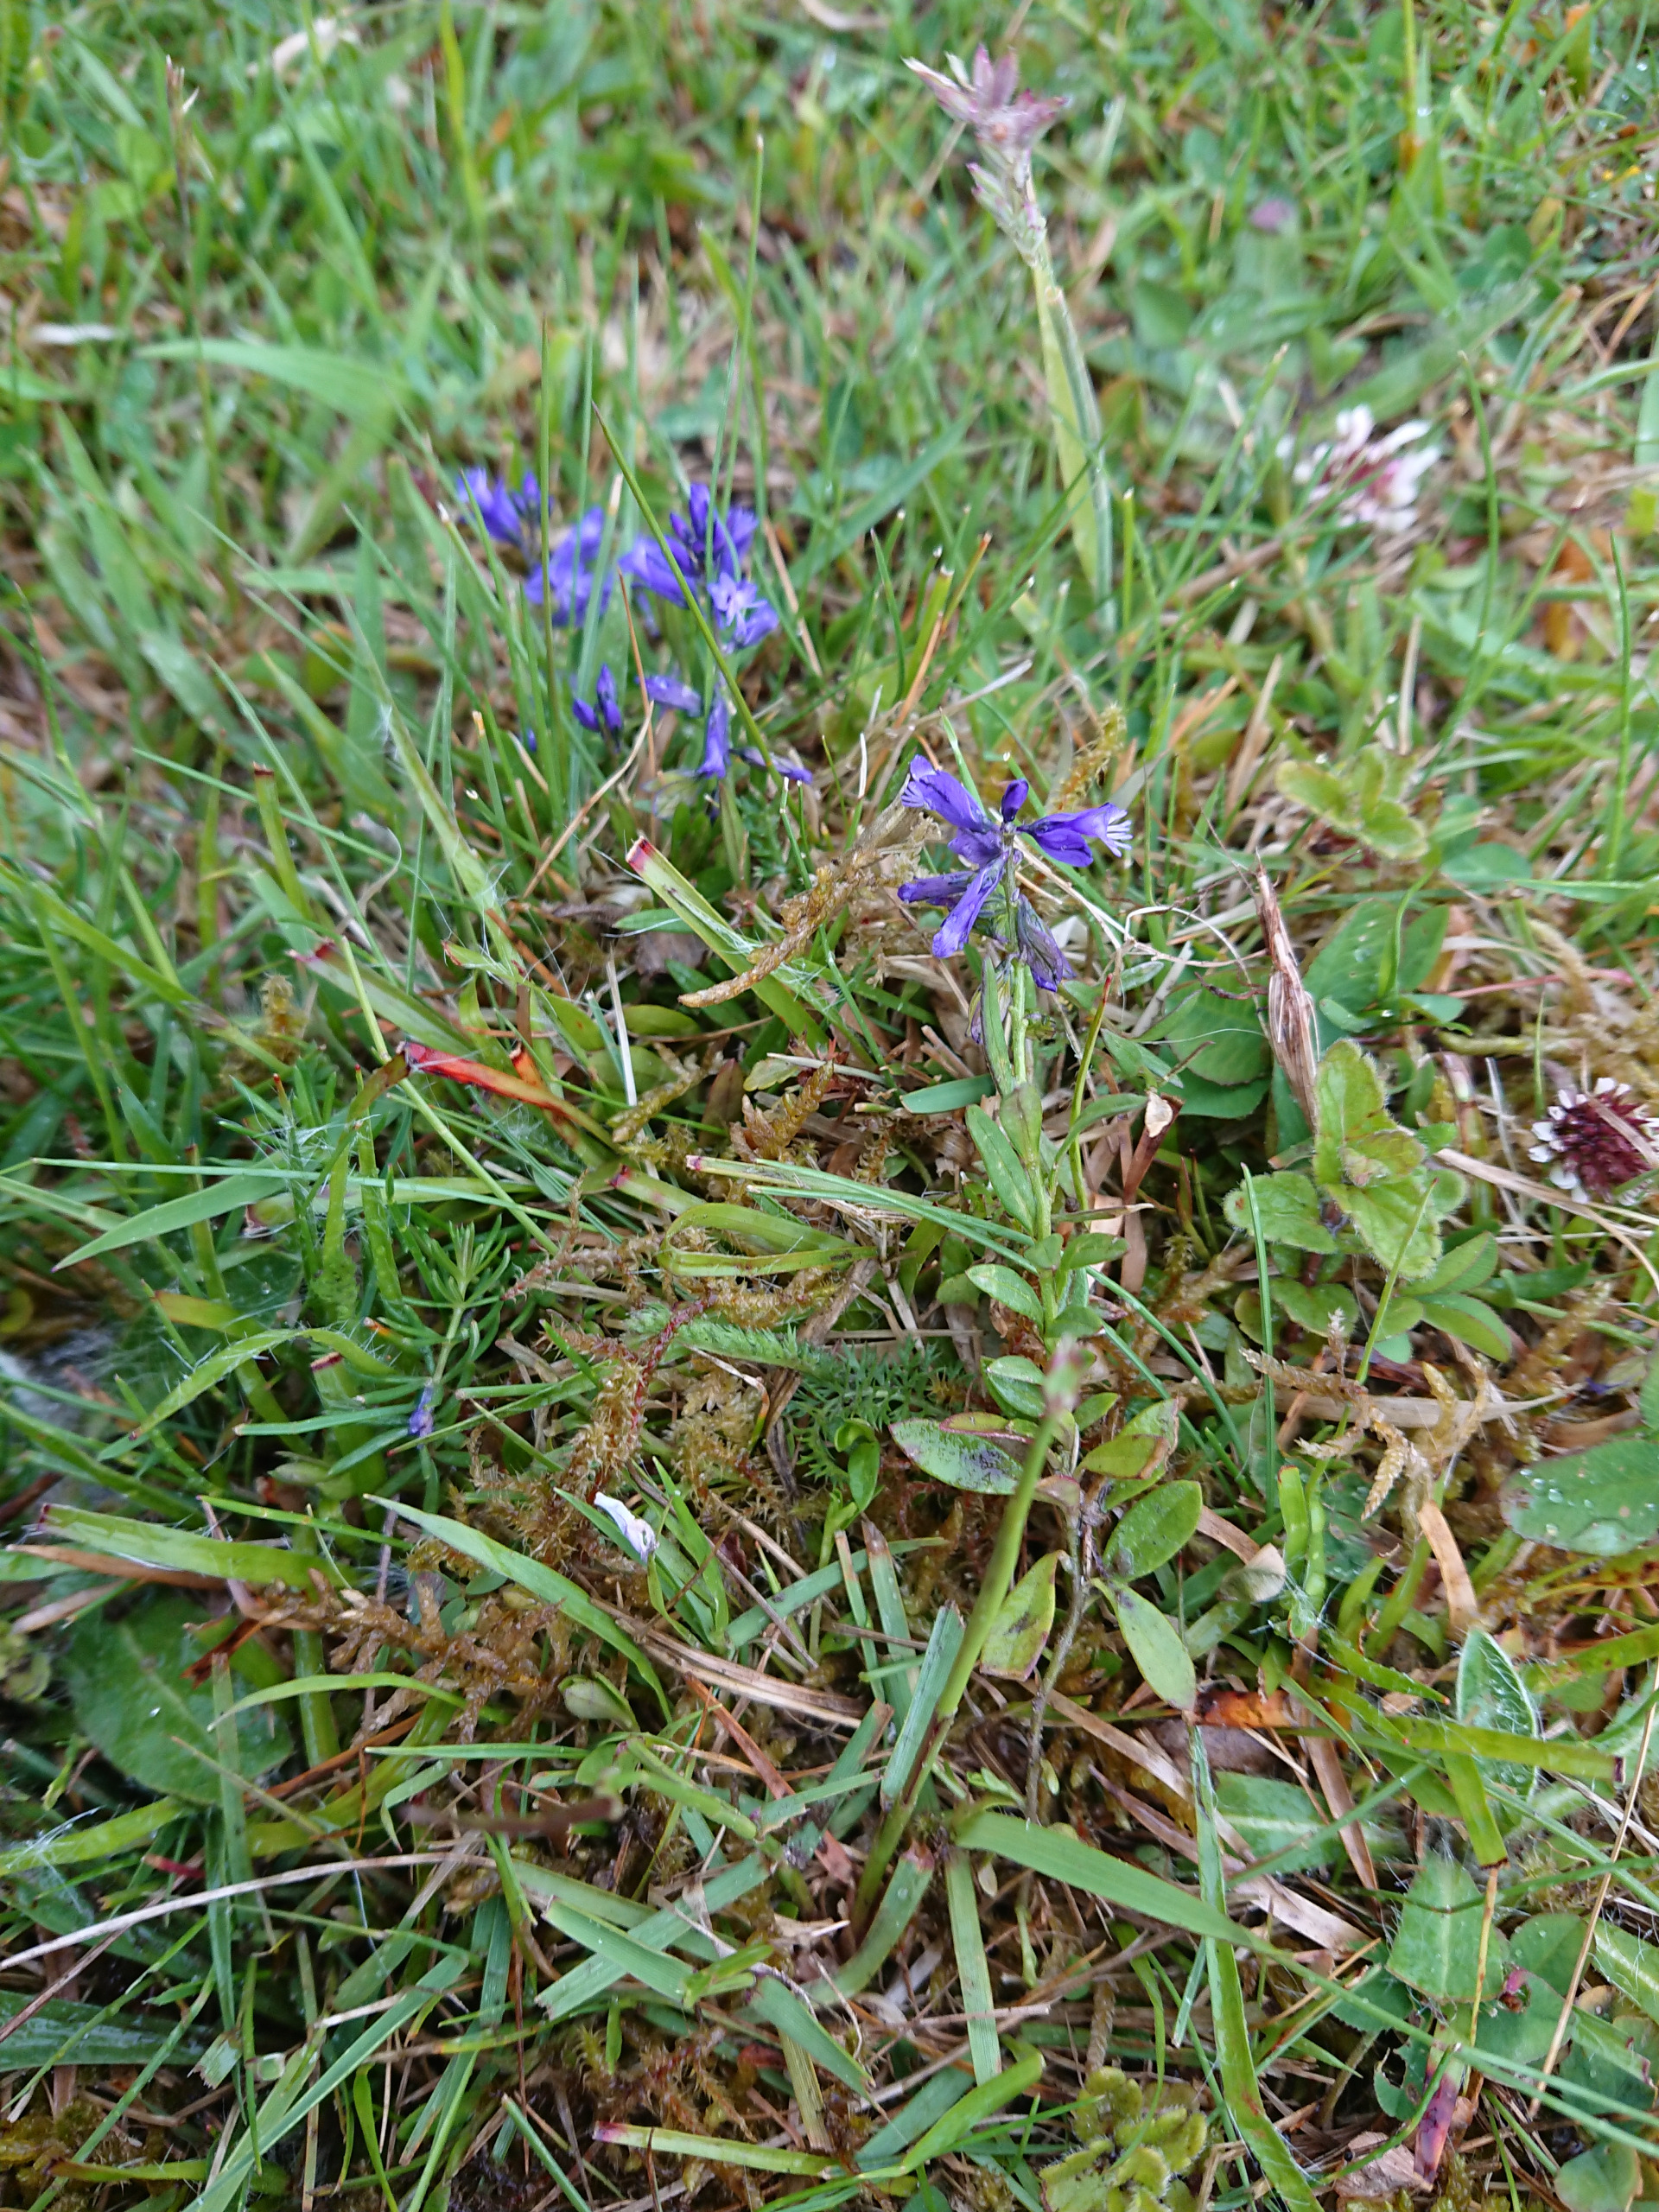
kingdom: Plantae
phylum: Tracheophyta
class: Magnoliopsida
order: Fabales
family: Polygalaceae
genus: Polygala
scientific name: Polygala vulgaris
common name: Almindelig mælkeurt
